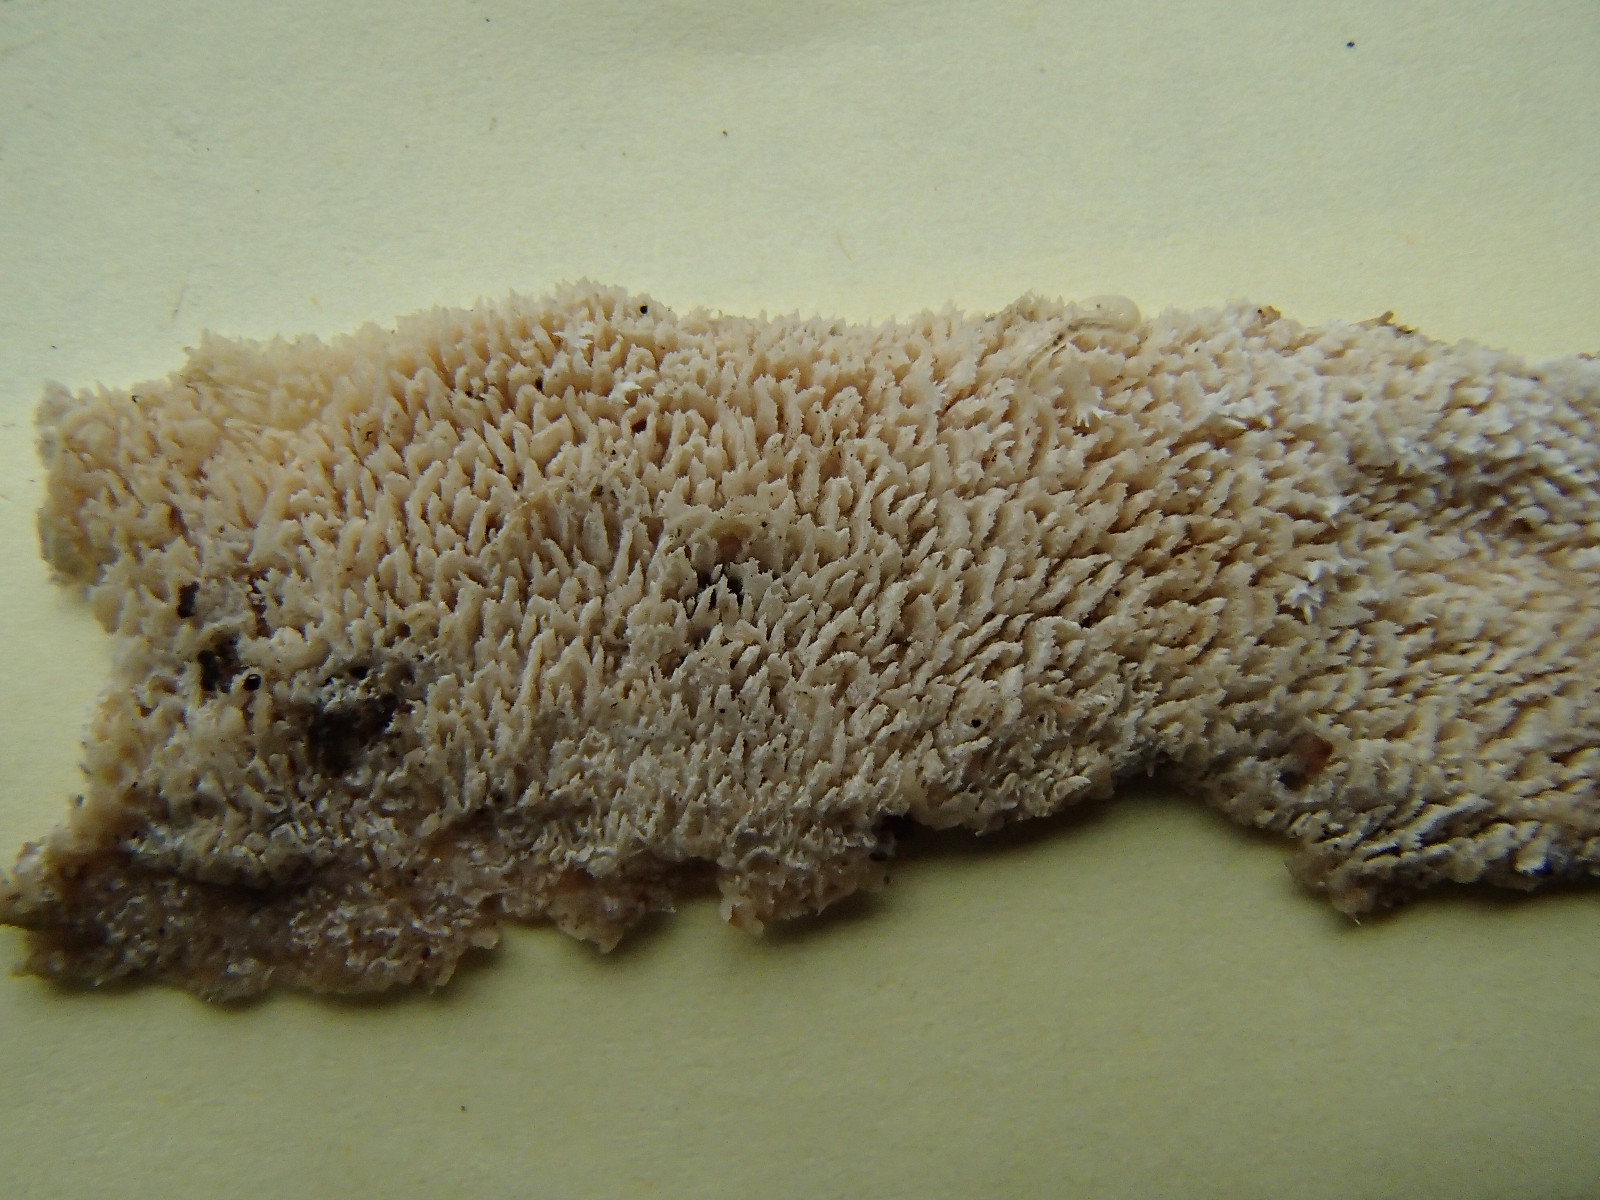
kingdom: Fungi
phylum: Basidiomycota
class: Agaricomycetes
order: Corticiales
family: Corticiaceae
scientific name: Corticiaceae
